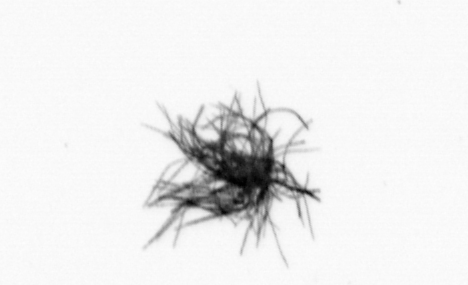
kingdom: Bacteria
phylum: Cyanobacteria
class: Cyanobacteriia
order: Cyanobacteriales
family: Microcoleaceae
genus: Trichodesmium
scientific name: Trichodesmium
